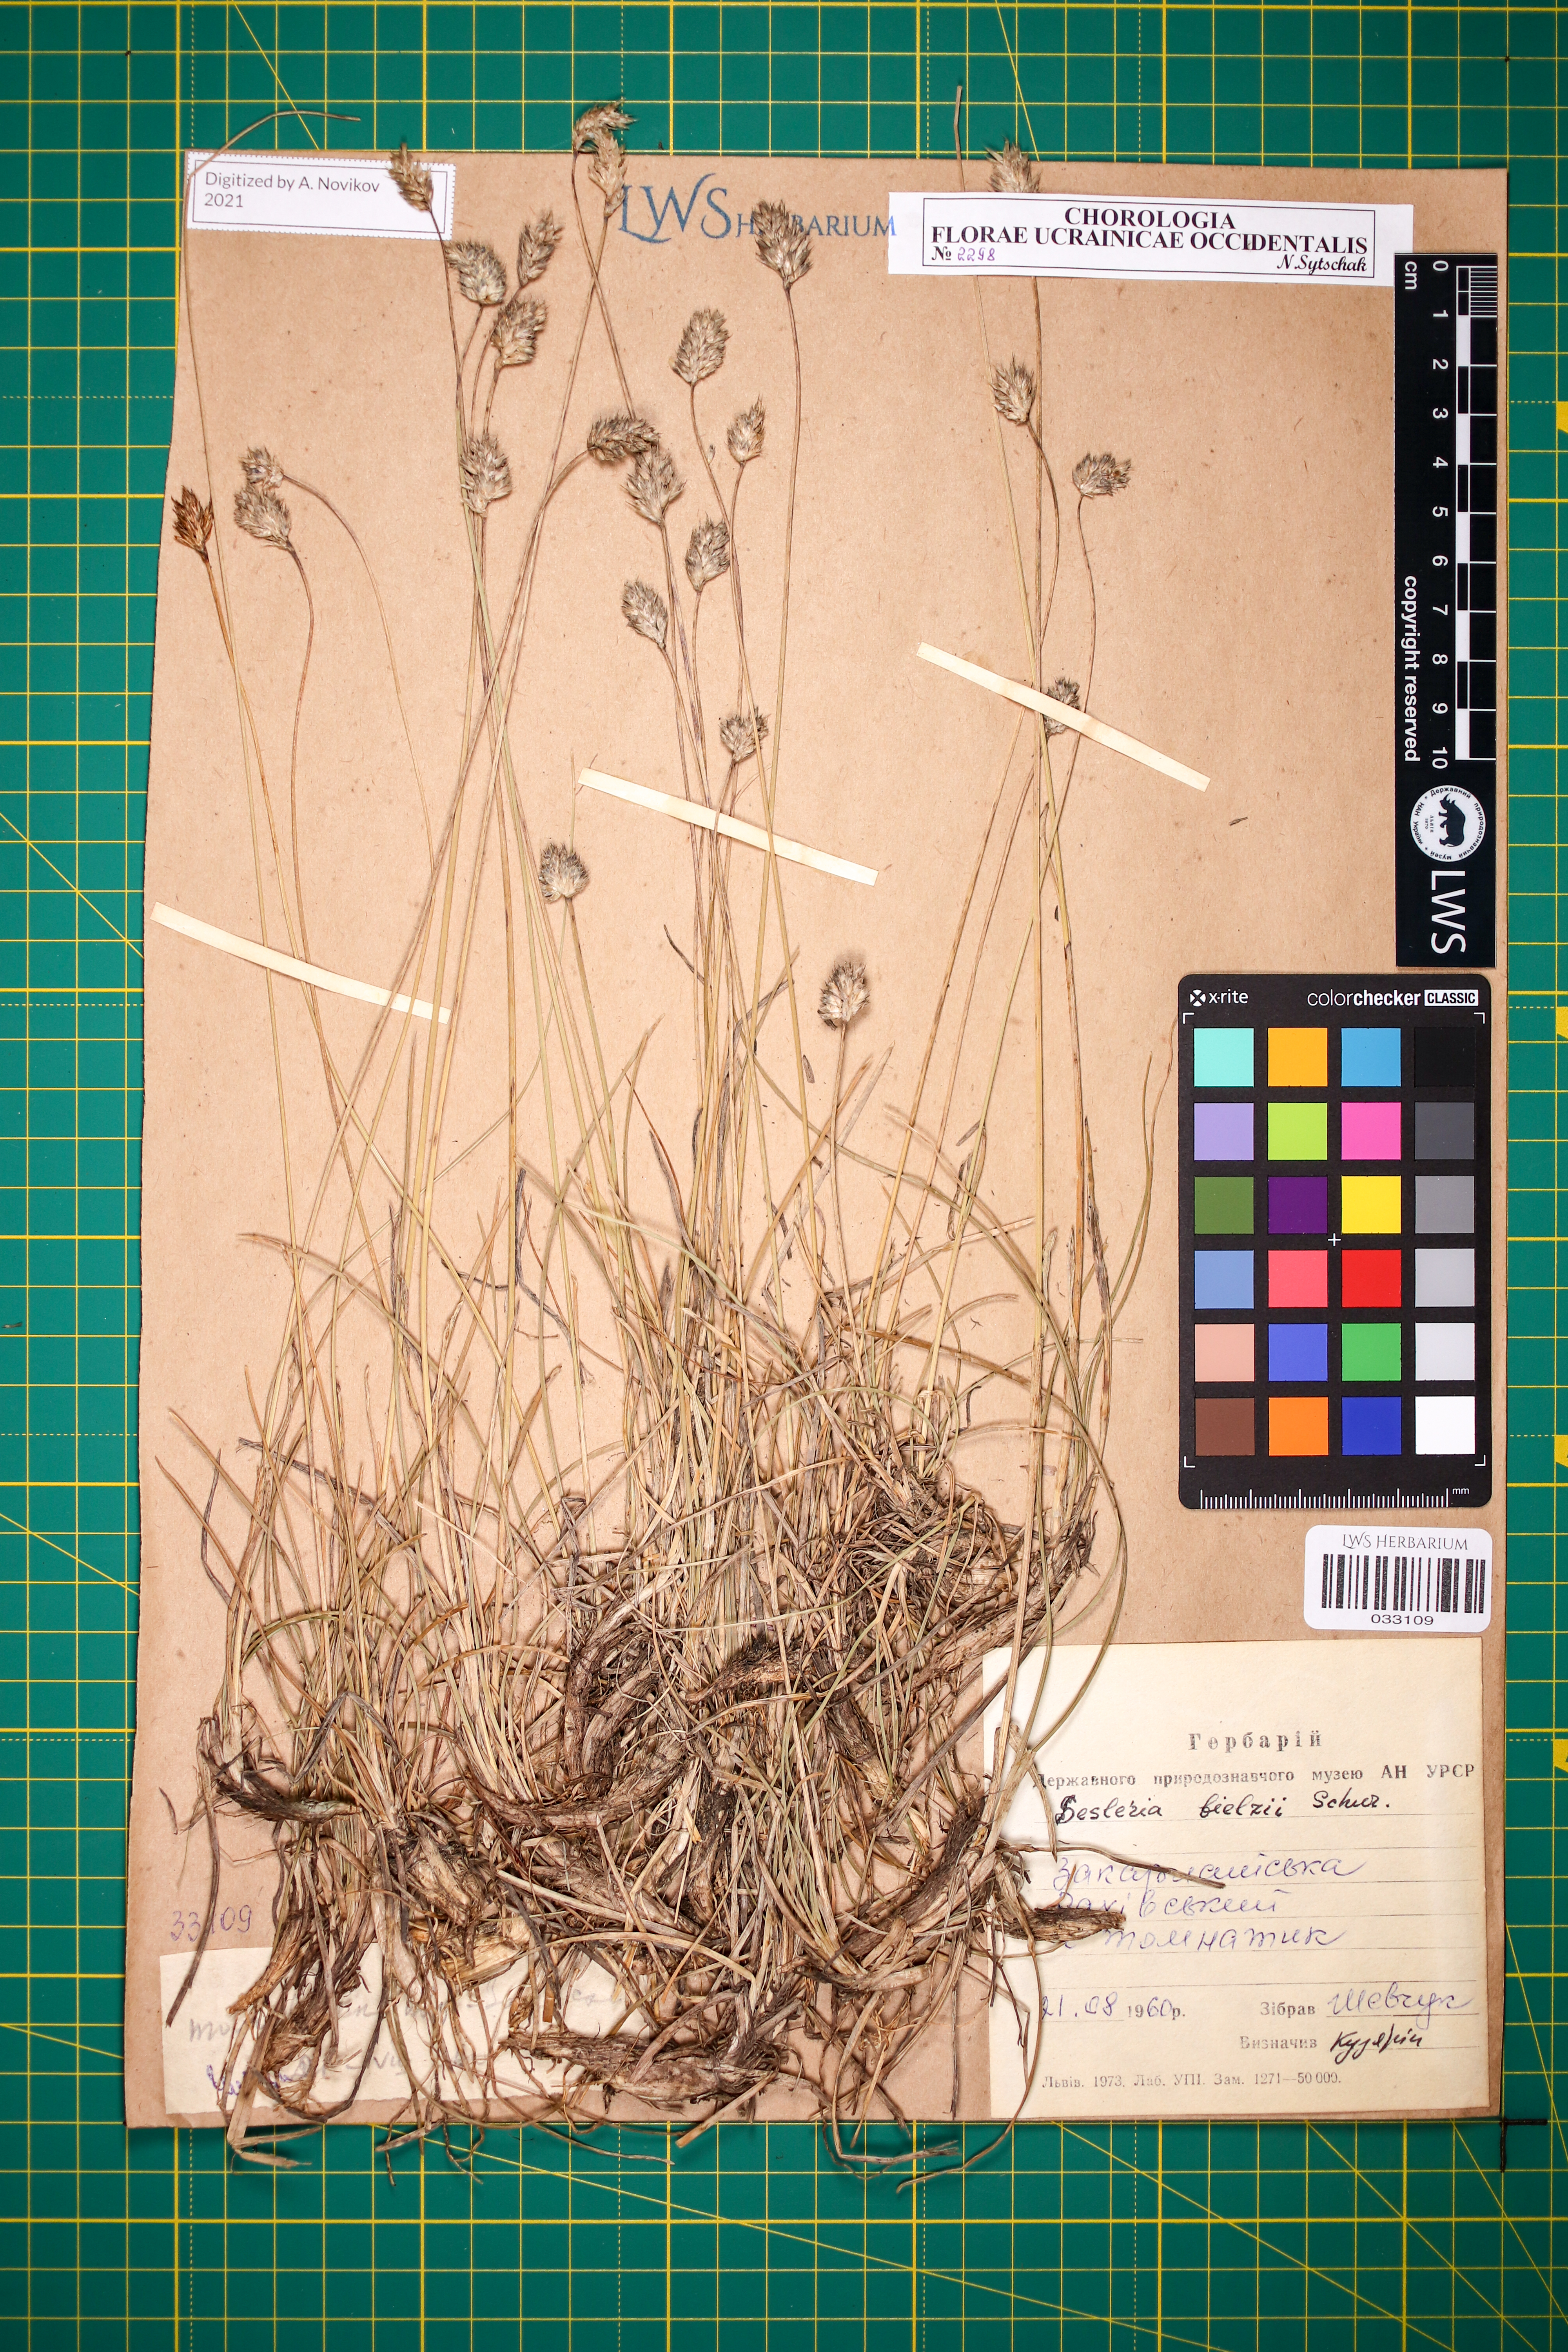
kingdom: Plantae
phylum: Tracheophyta
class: Liliopsida
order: Poales
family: Poaceae
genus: Sesleria
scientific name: Sesleria bielzii
